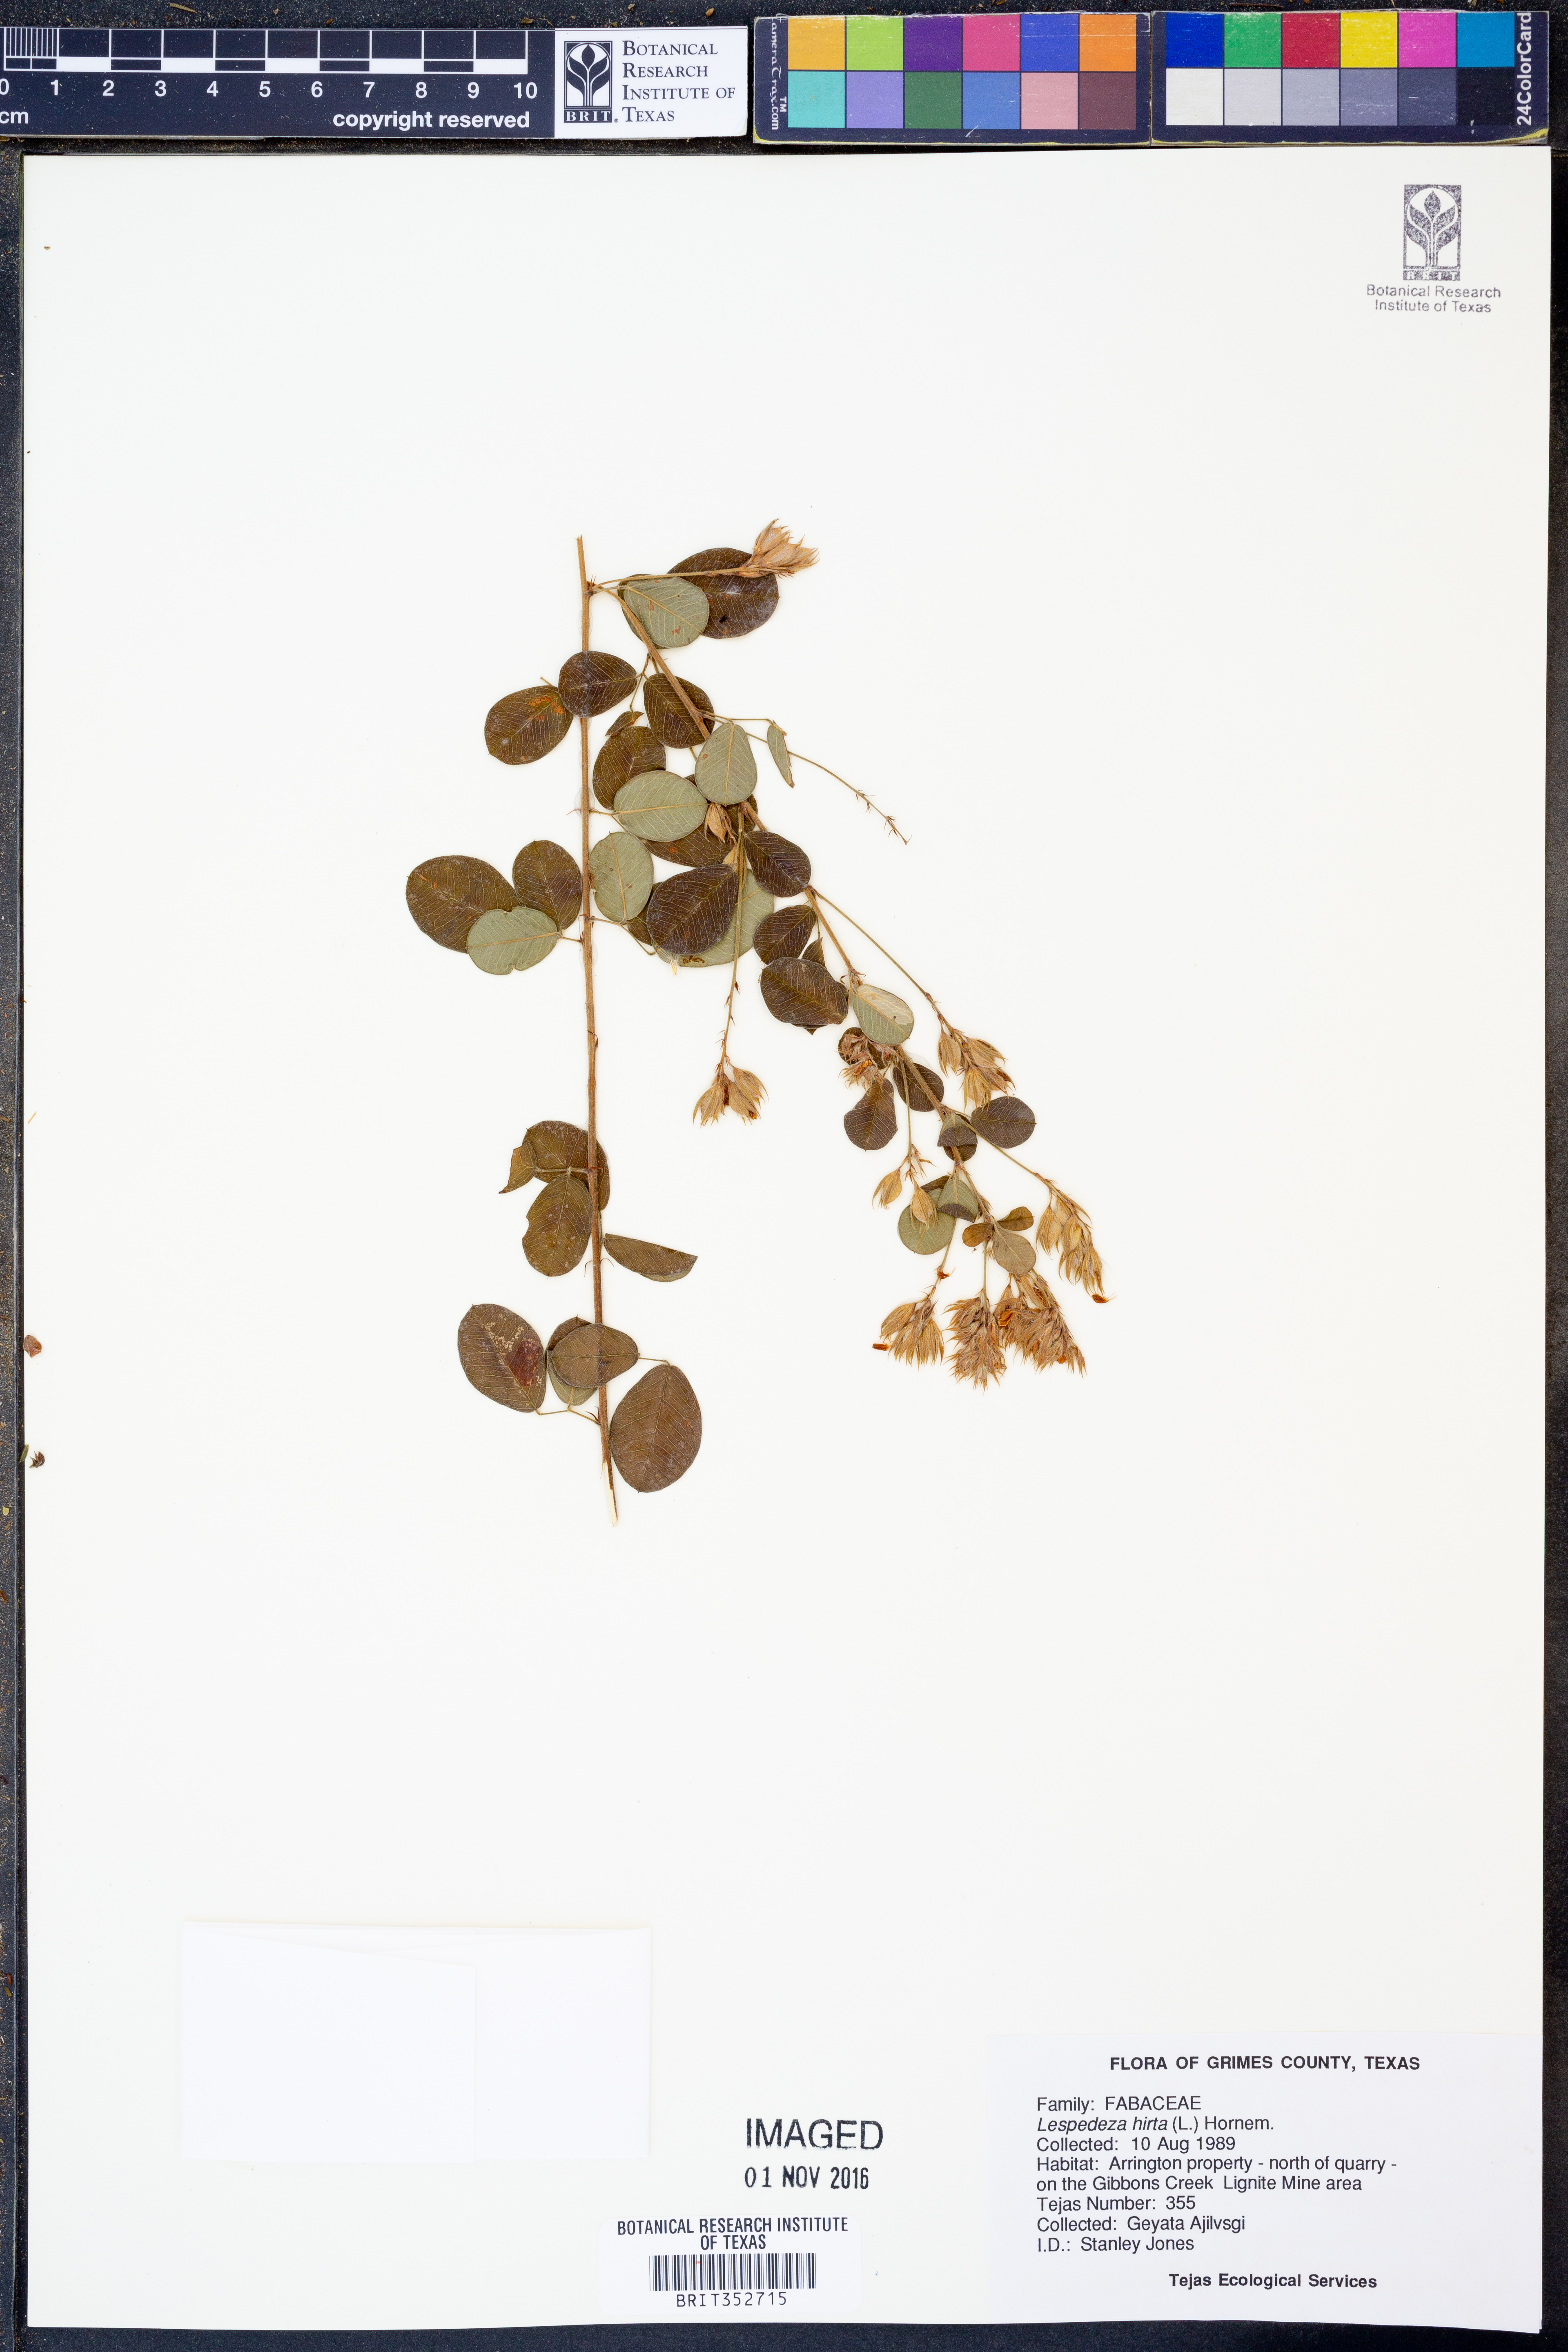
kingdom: Plantae
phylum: Tracheophyta
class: Magnoliopsida
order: Fabales
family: Fabaceae
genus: Lespedeza
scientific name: Lespedeza hirta
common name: Hairy lespedeza
